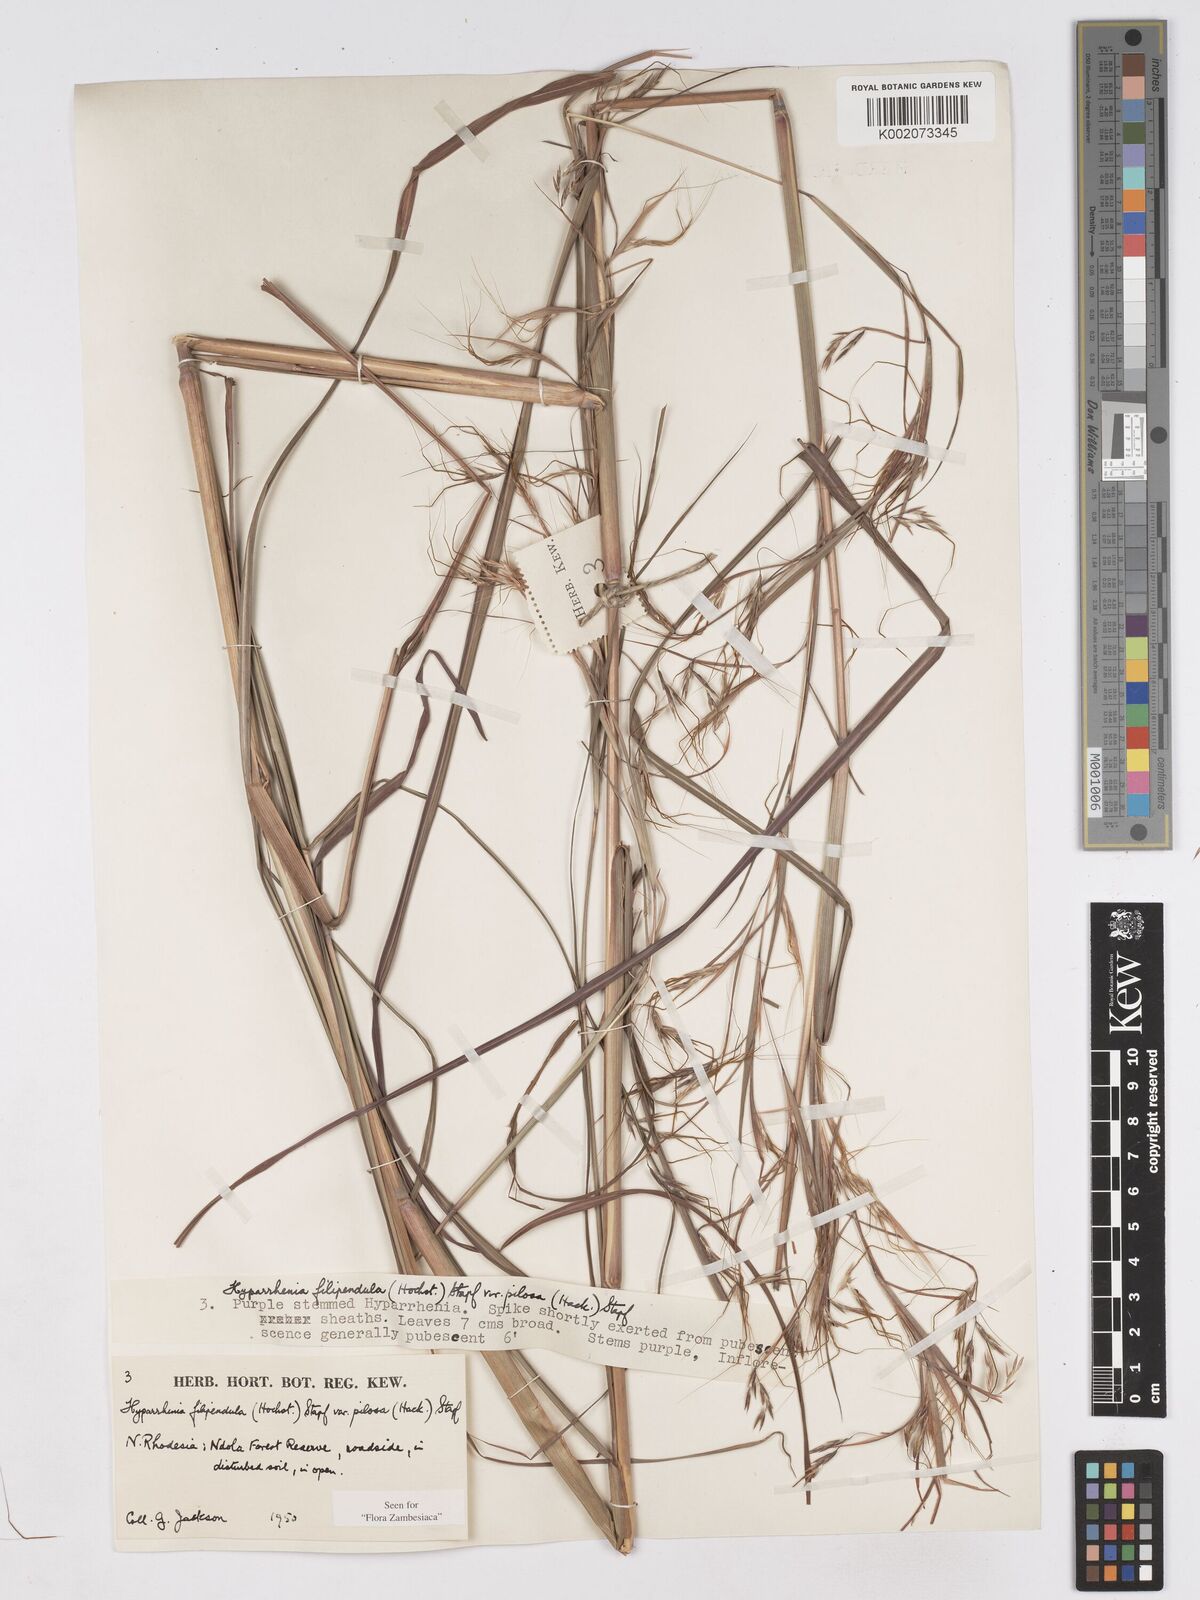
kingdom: Plantae
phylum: Tracheophyta
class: Liliopsida
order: Poales
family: Poaceae
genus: Hyparrhenia
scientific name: Hyparrhenia filipendula
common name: Tambookie grass
